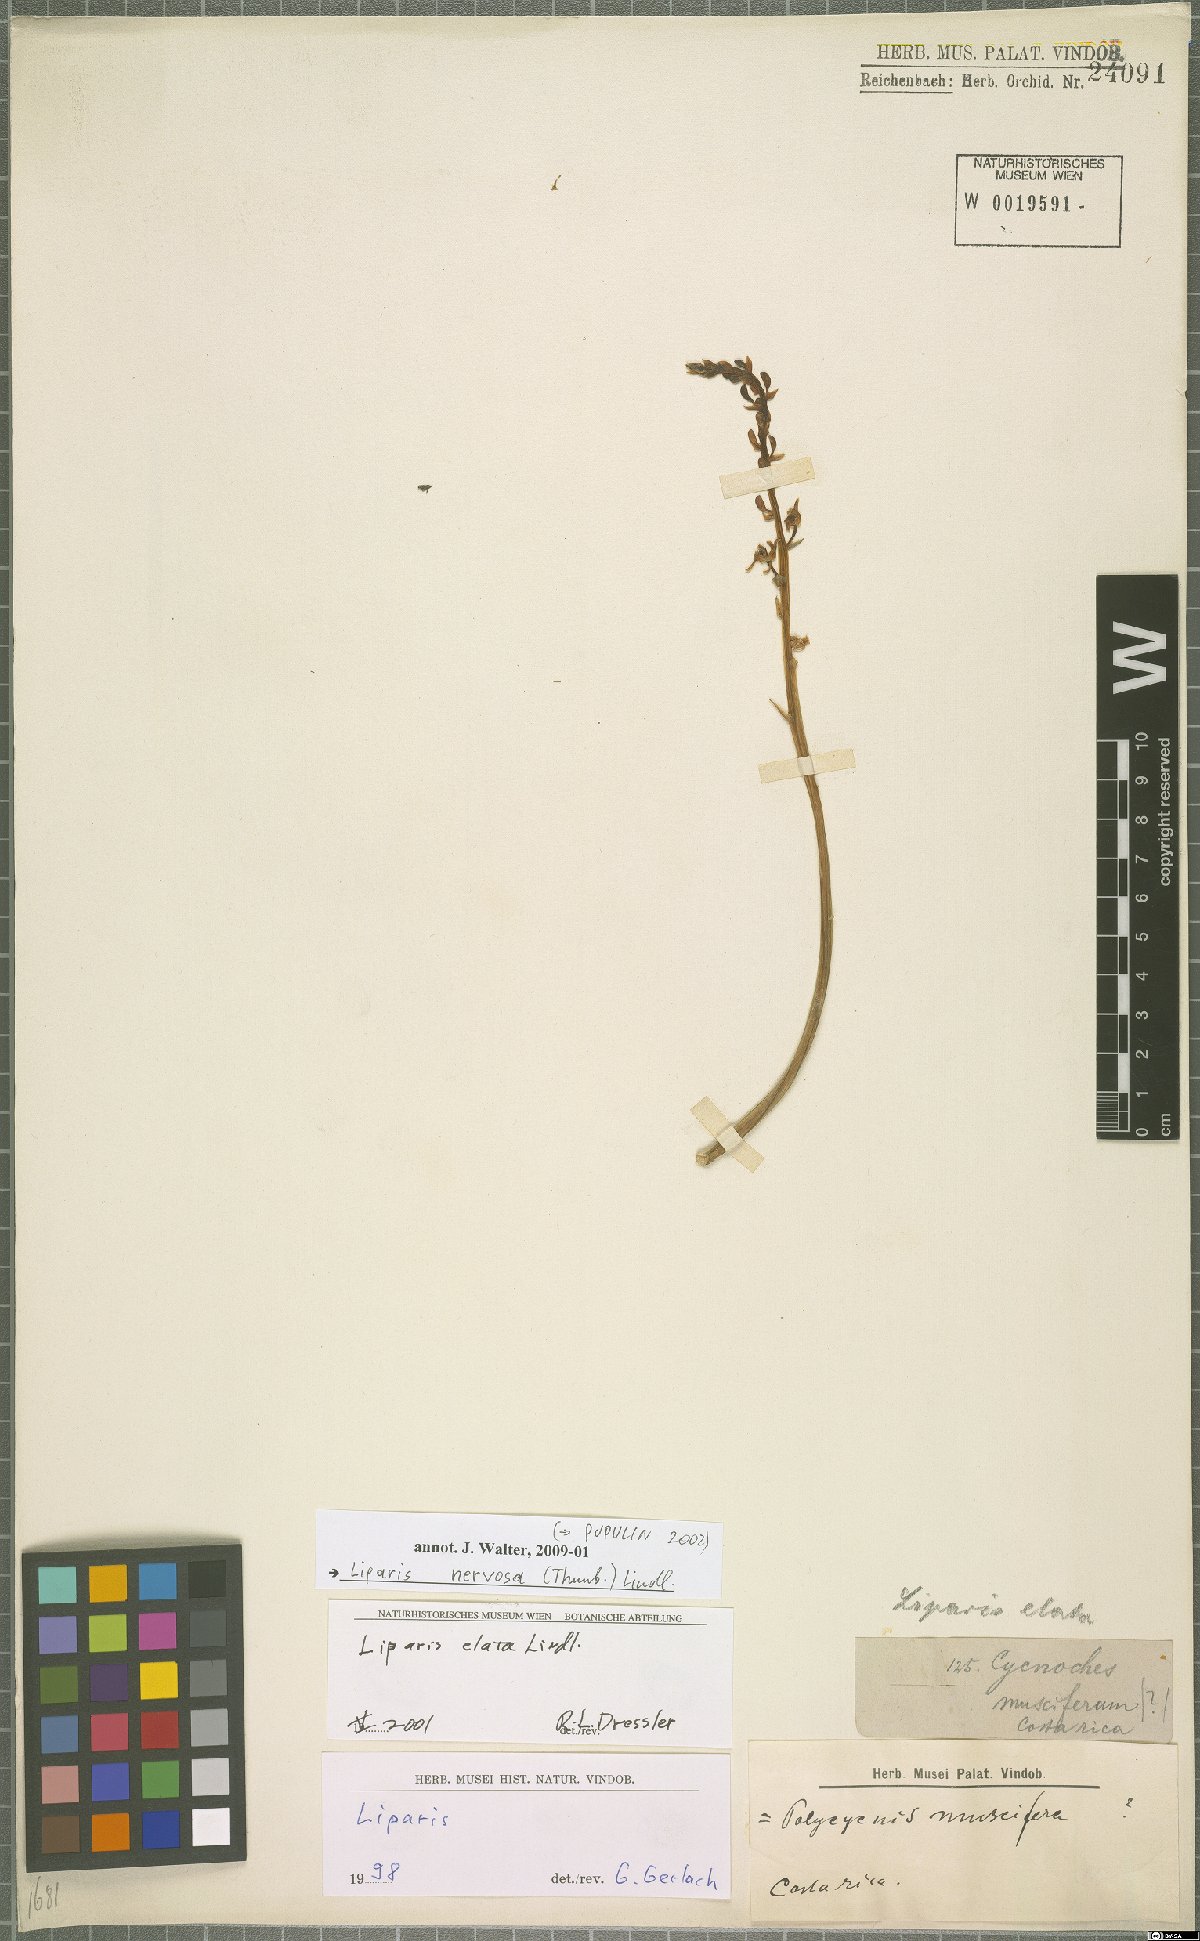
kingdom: Plantae
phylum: Tracheophyta
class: Liliopsida
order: Asparagales
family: Orchidaceae
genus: Liparis
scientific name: Liparis nervosa
